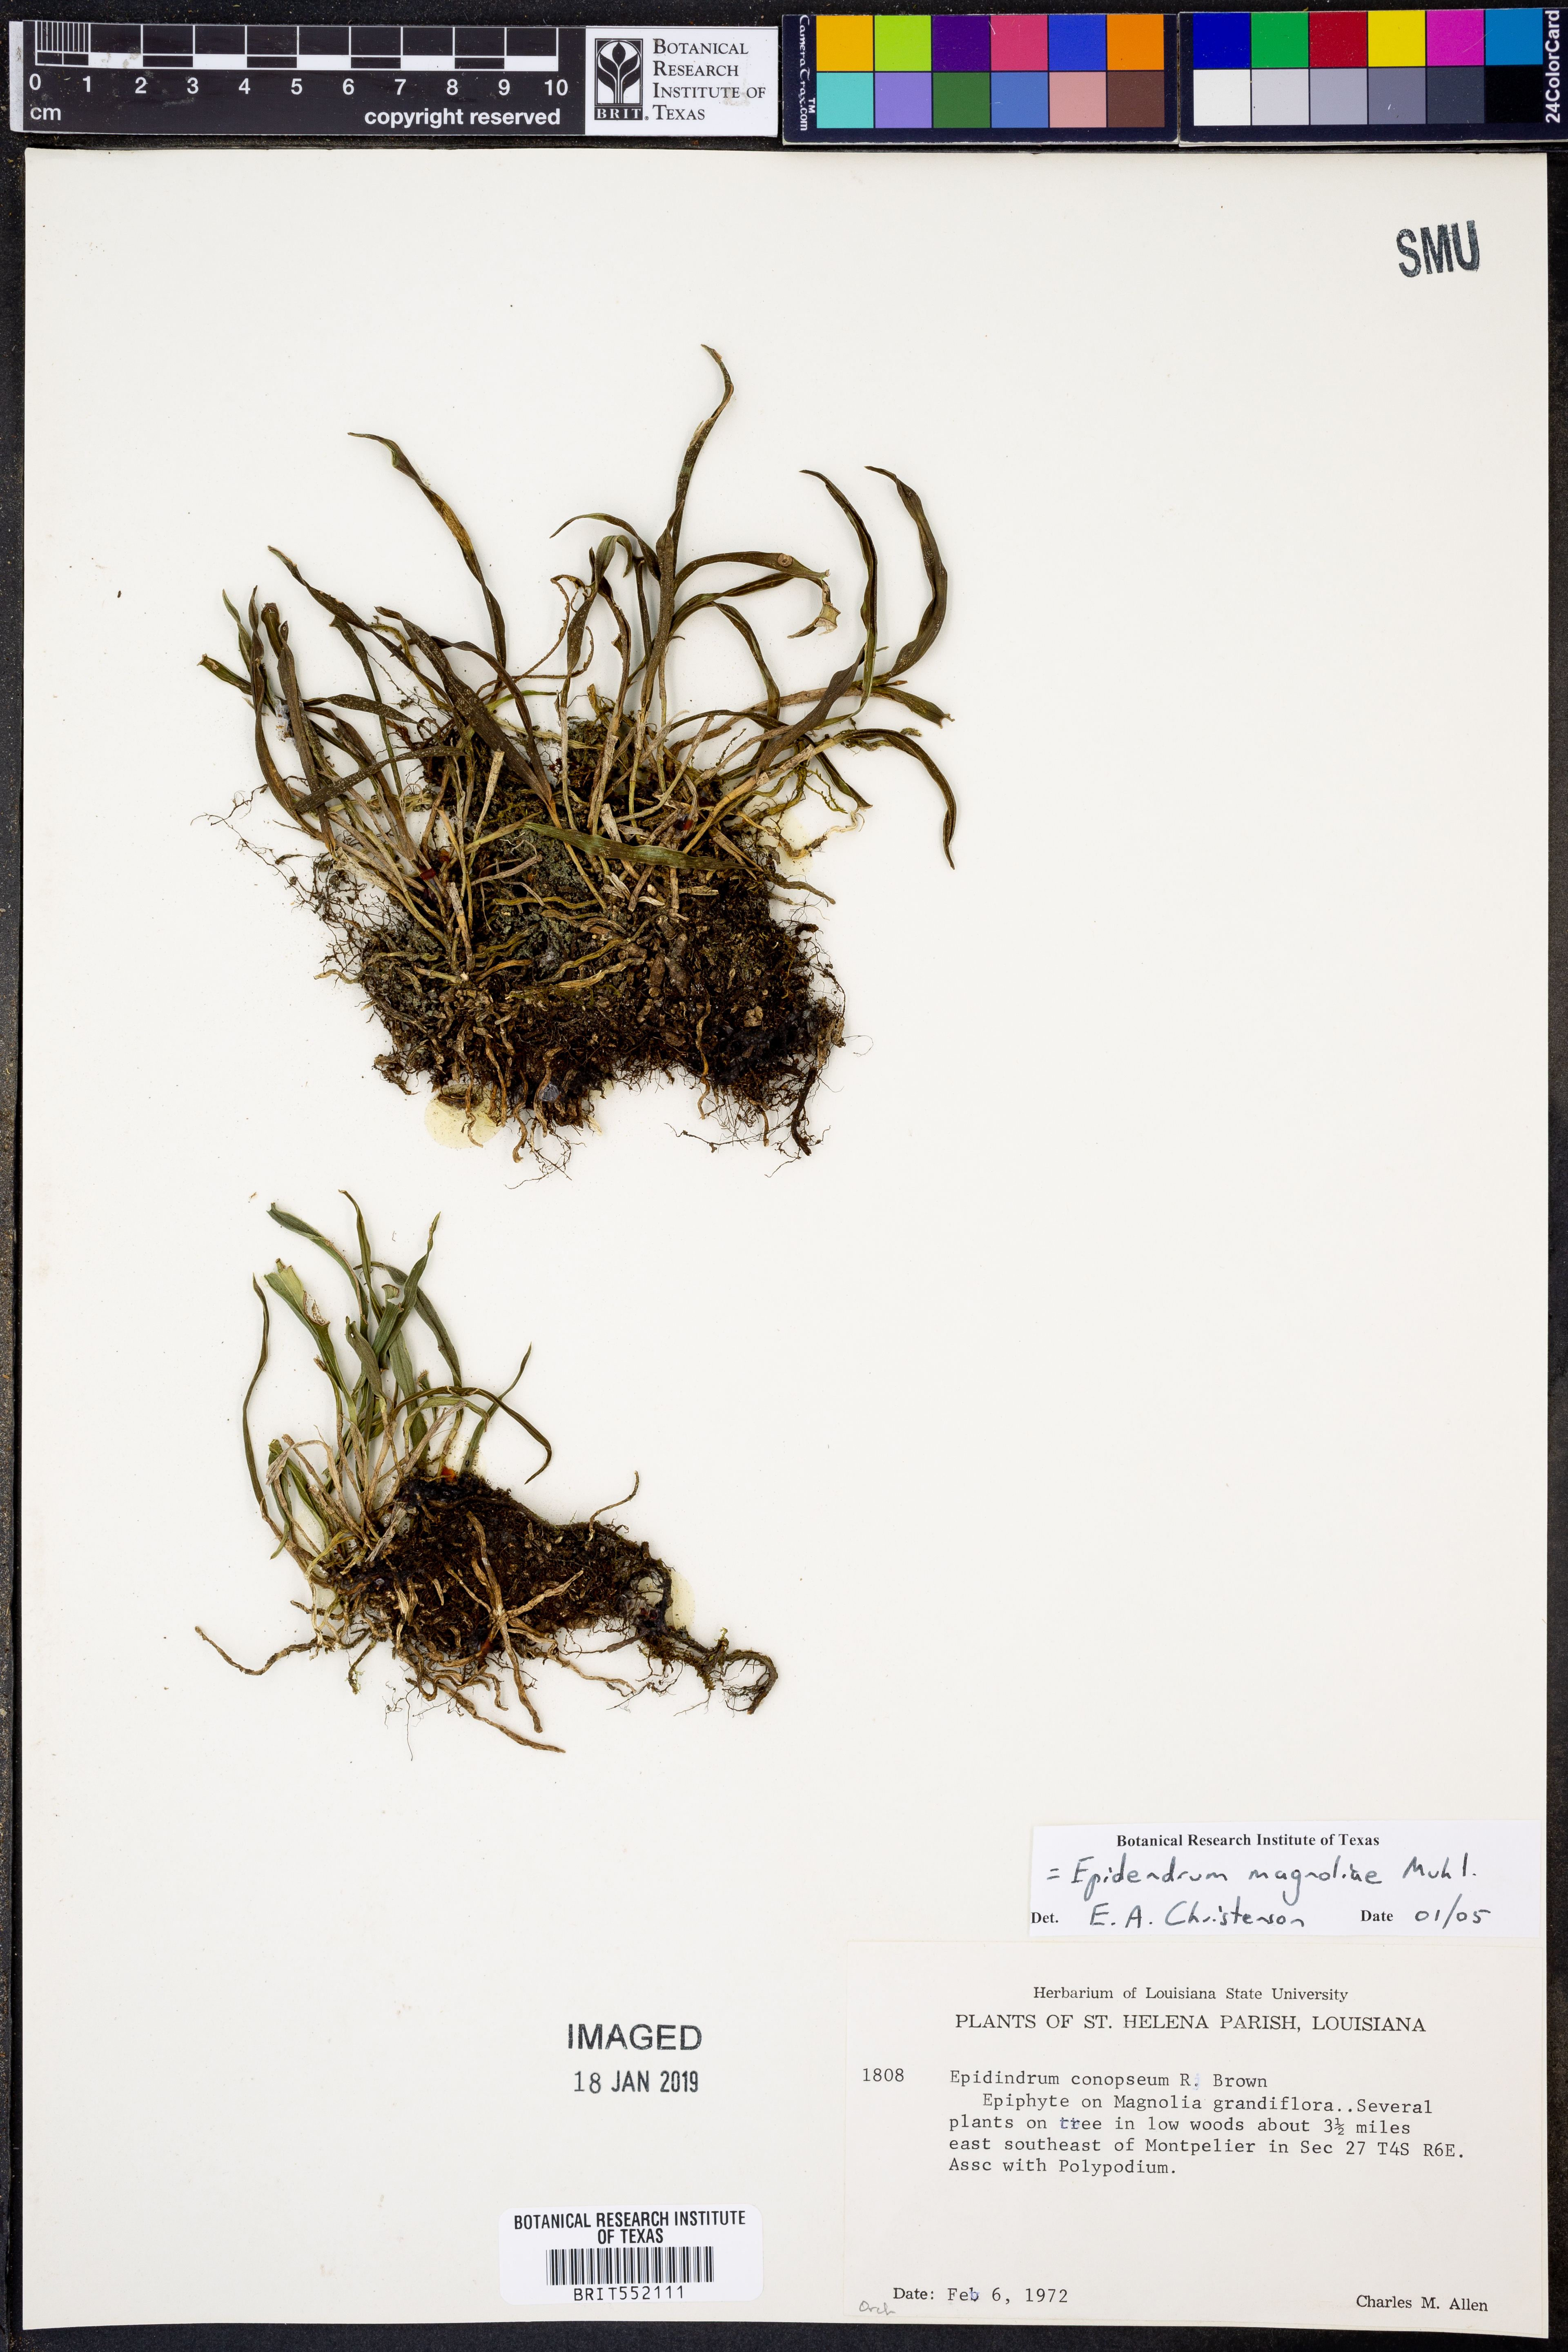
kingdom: Plantae
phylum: Tracheophyta
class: Liliopsida
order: Asparagales
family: Orchidaceae
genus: Epidendrum
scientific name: Epidendrum magnoliae
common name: Green fly orchid
